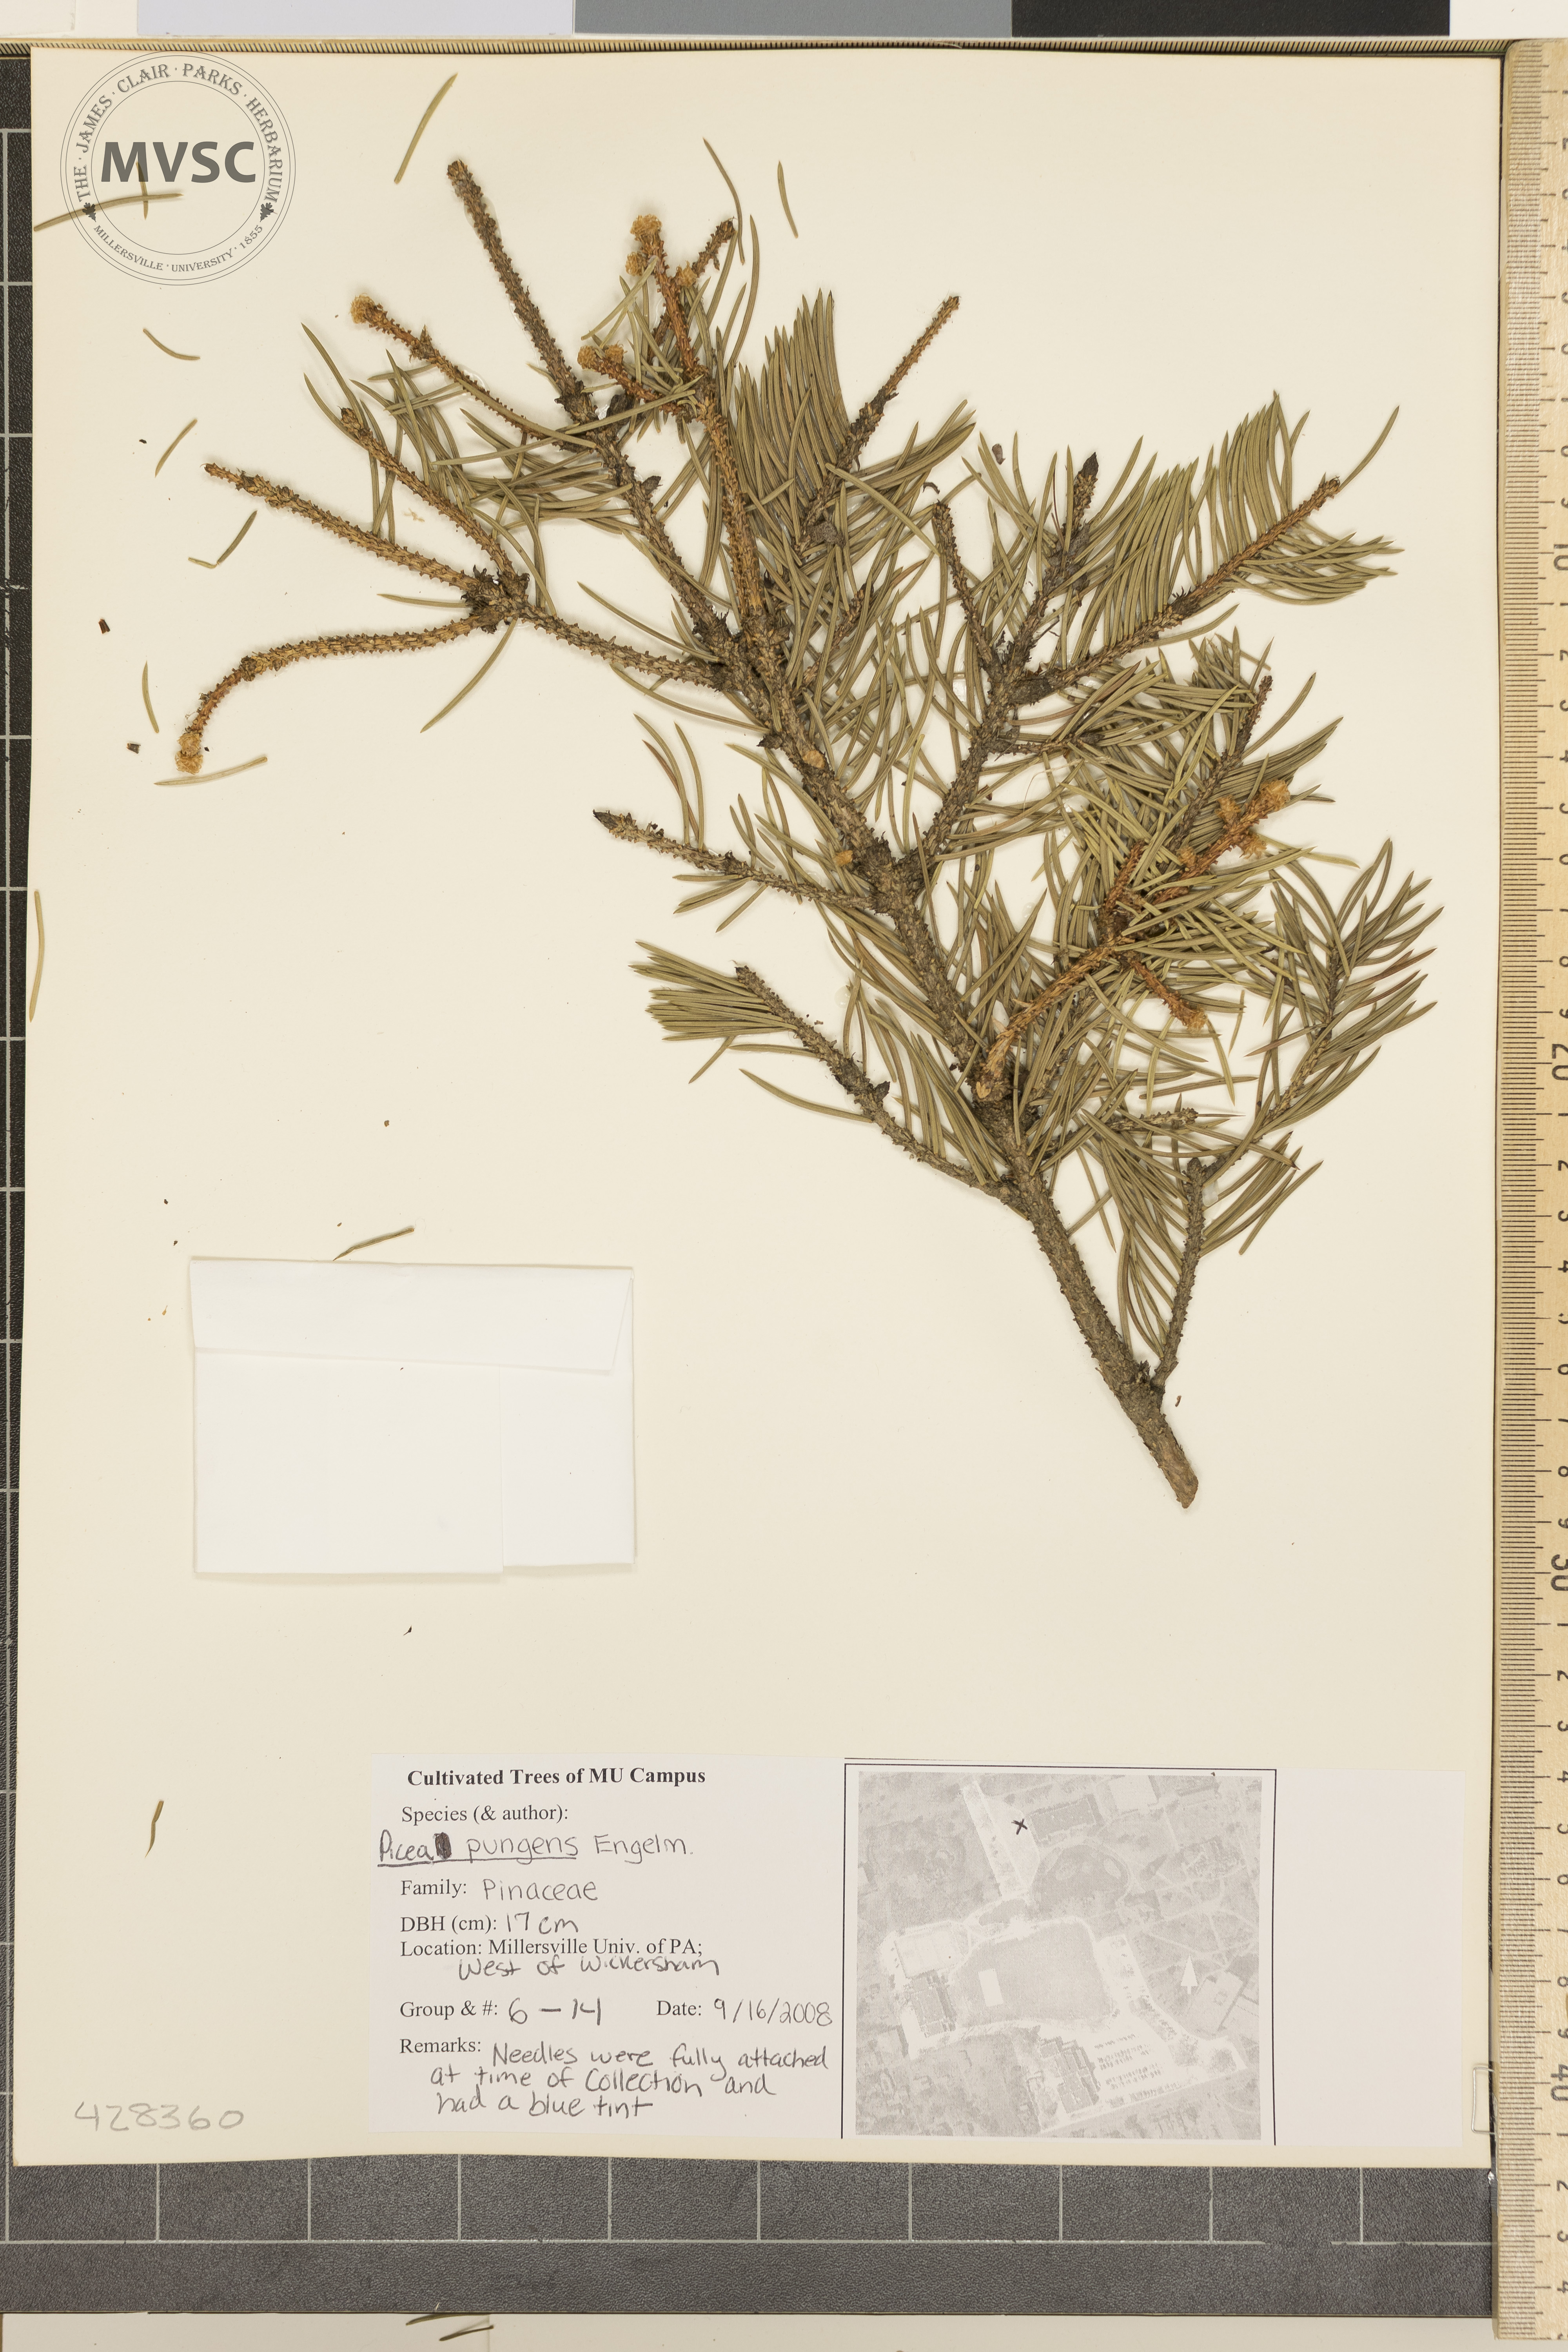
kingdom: Plantae
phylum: Tracheophyta
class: Pinopsida
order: Pinales
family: Pinaceae
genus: Picea
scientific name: Picea pungens
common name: Colorado Blue Spruce
